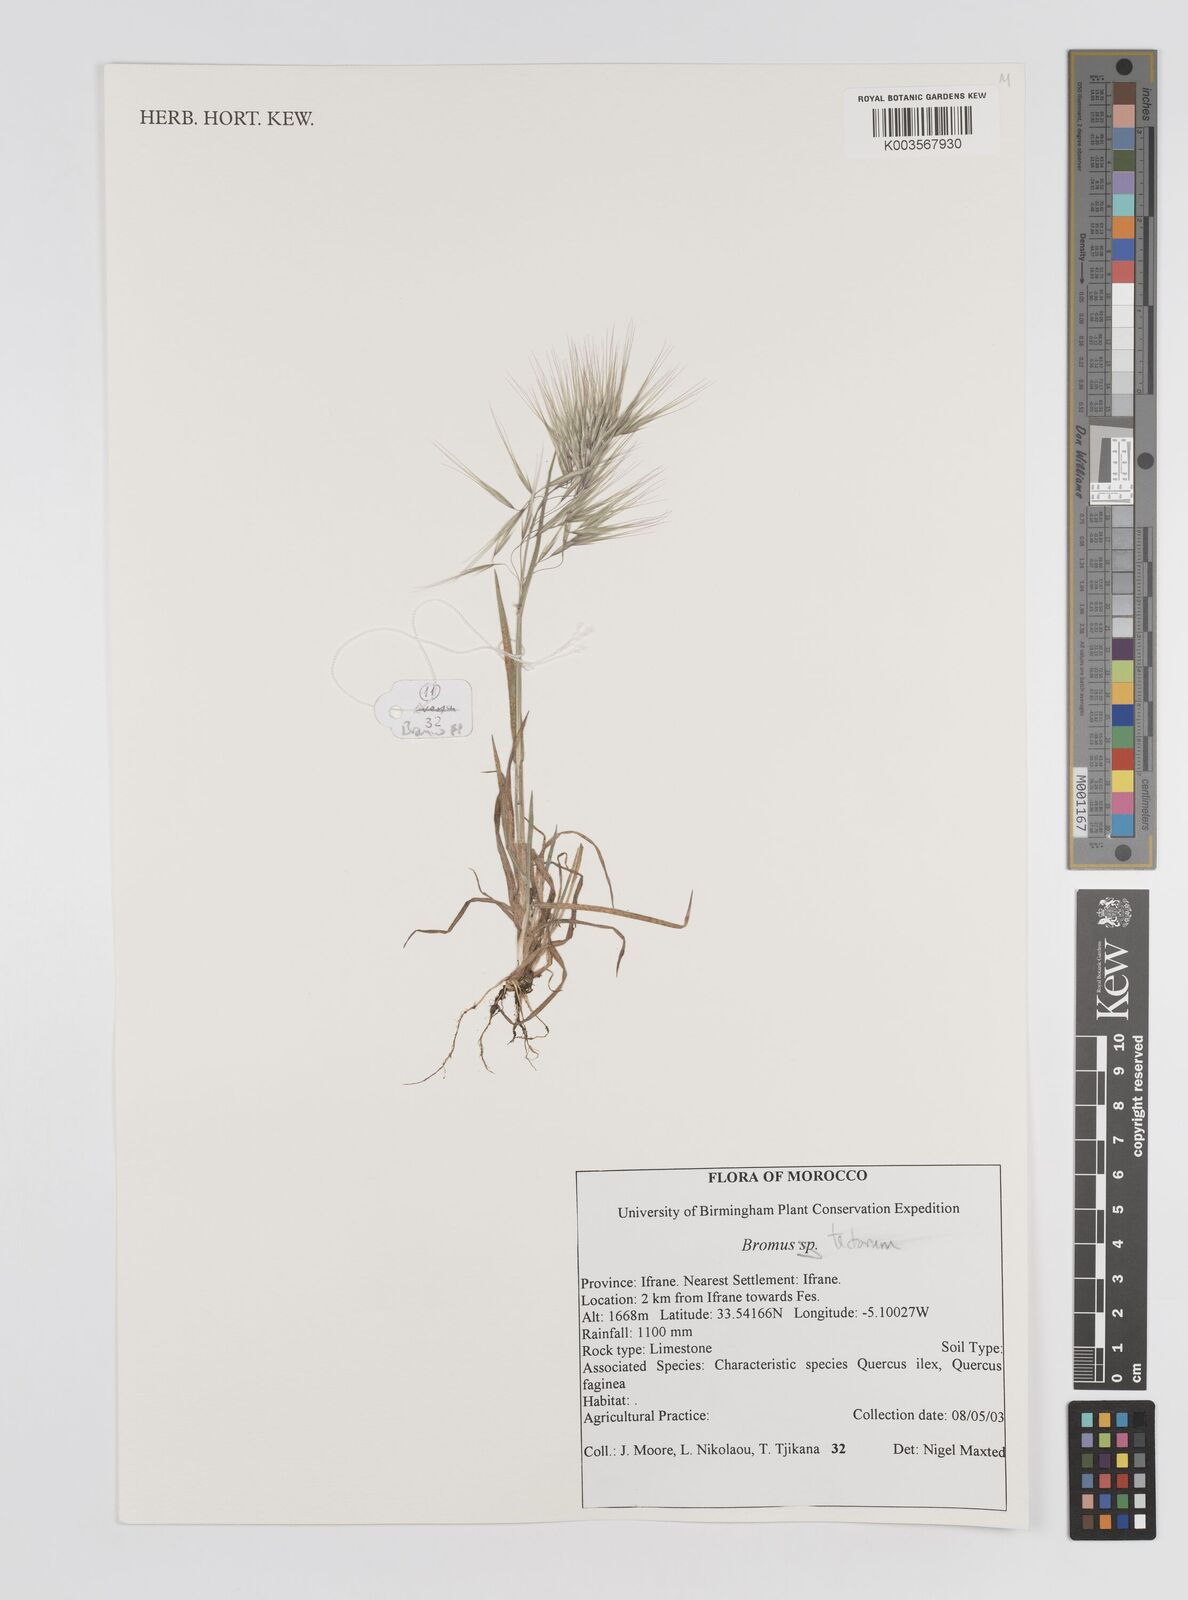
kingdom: Plantae
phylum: Tracheophyta
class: Liliopsida
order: Poales
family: Poaceae
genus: Bromus
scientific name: Bromus tectorum
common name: Cheatgrass
